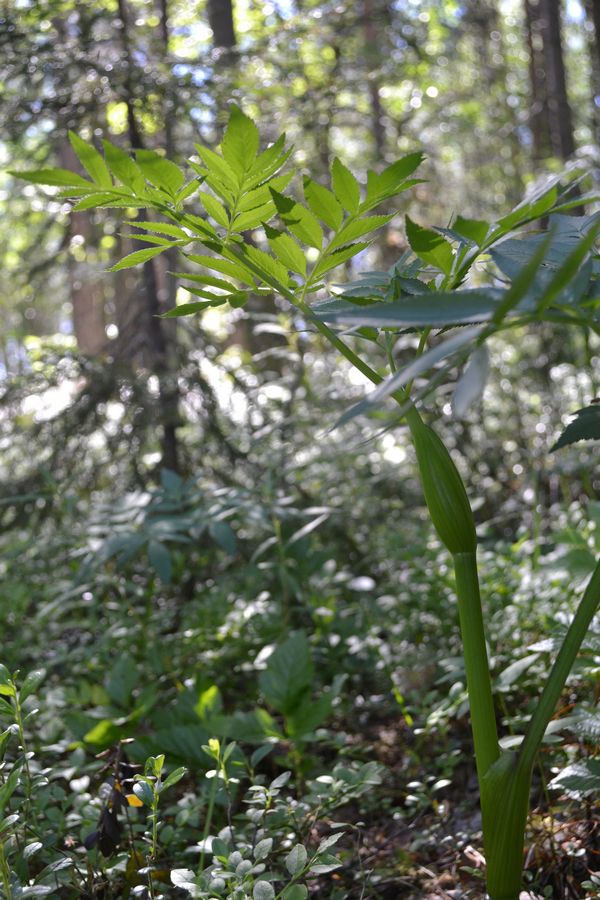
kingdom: Plantae
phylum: Tracheophyta
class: Magnoliopsida
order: Apiales
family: Apiaceae
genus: Angelica
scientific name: Angelica sylvestris
